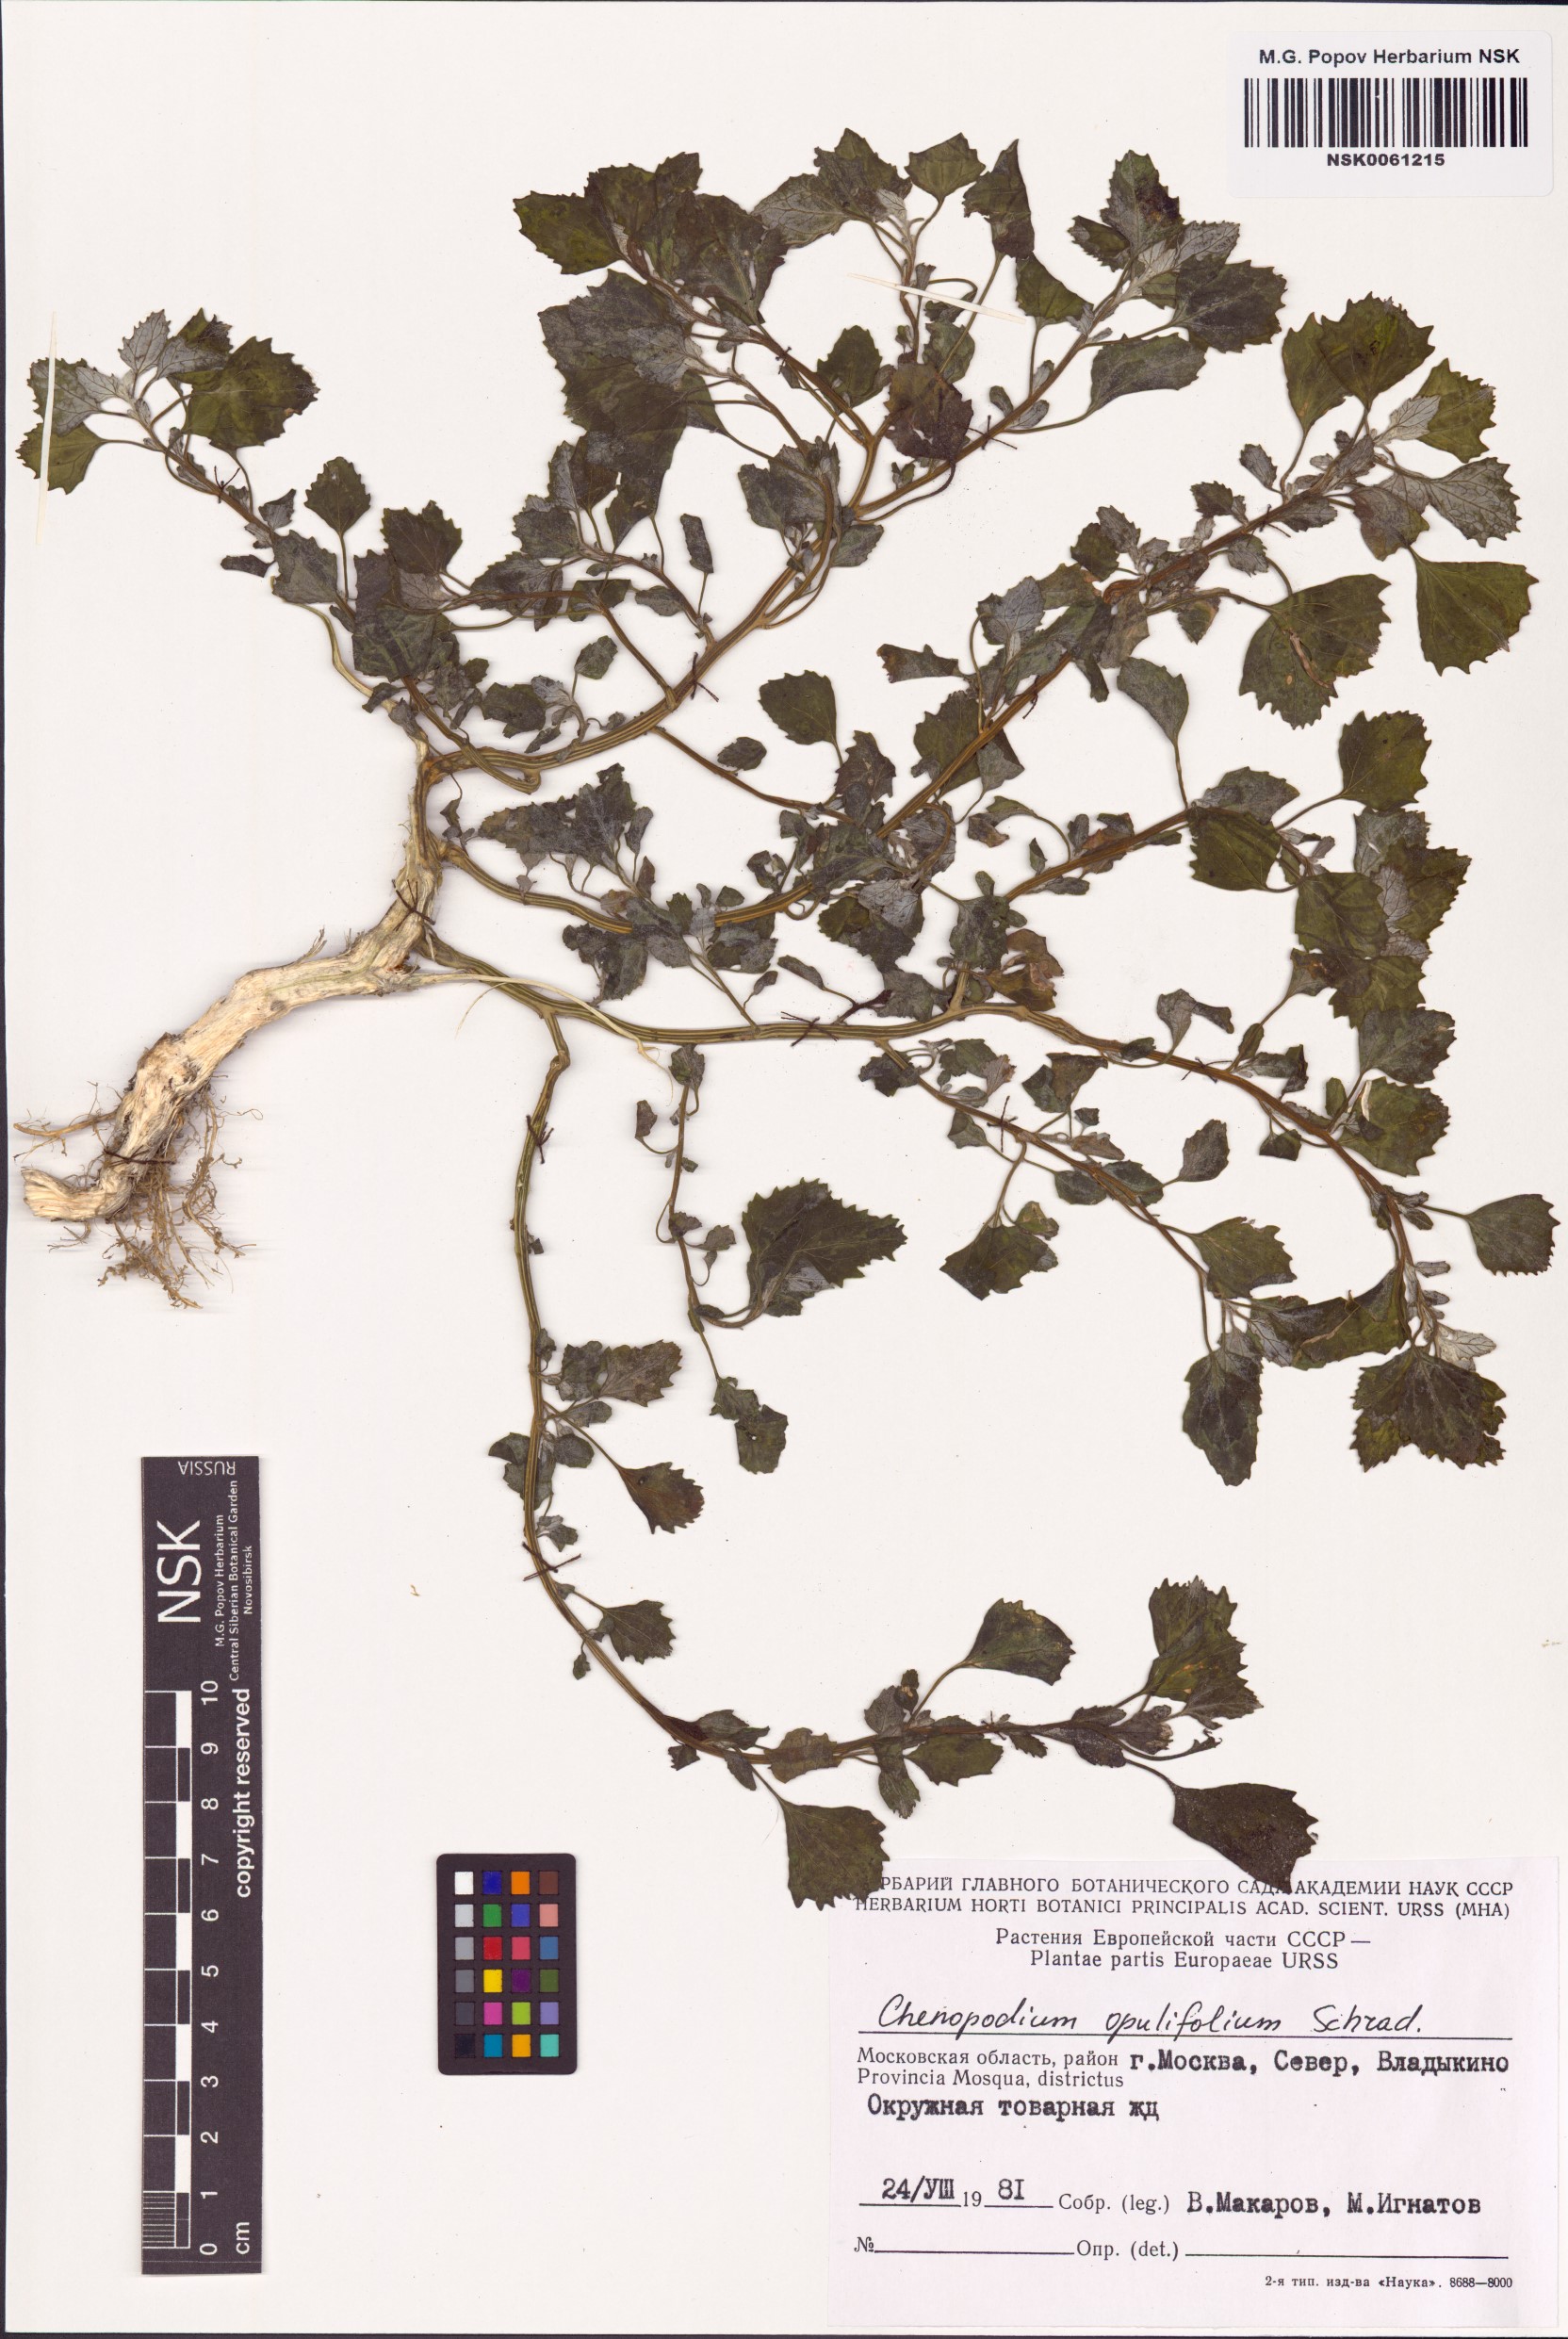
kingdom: Plantae
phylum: Tracheophyta
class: Magnoliopsida
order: Caryophyllales
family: Amaranthaceae
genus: Chenopodium
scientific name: Chenopodium opulifolium
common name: Grey goosefoot
